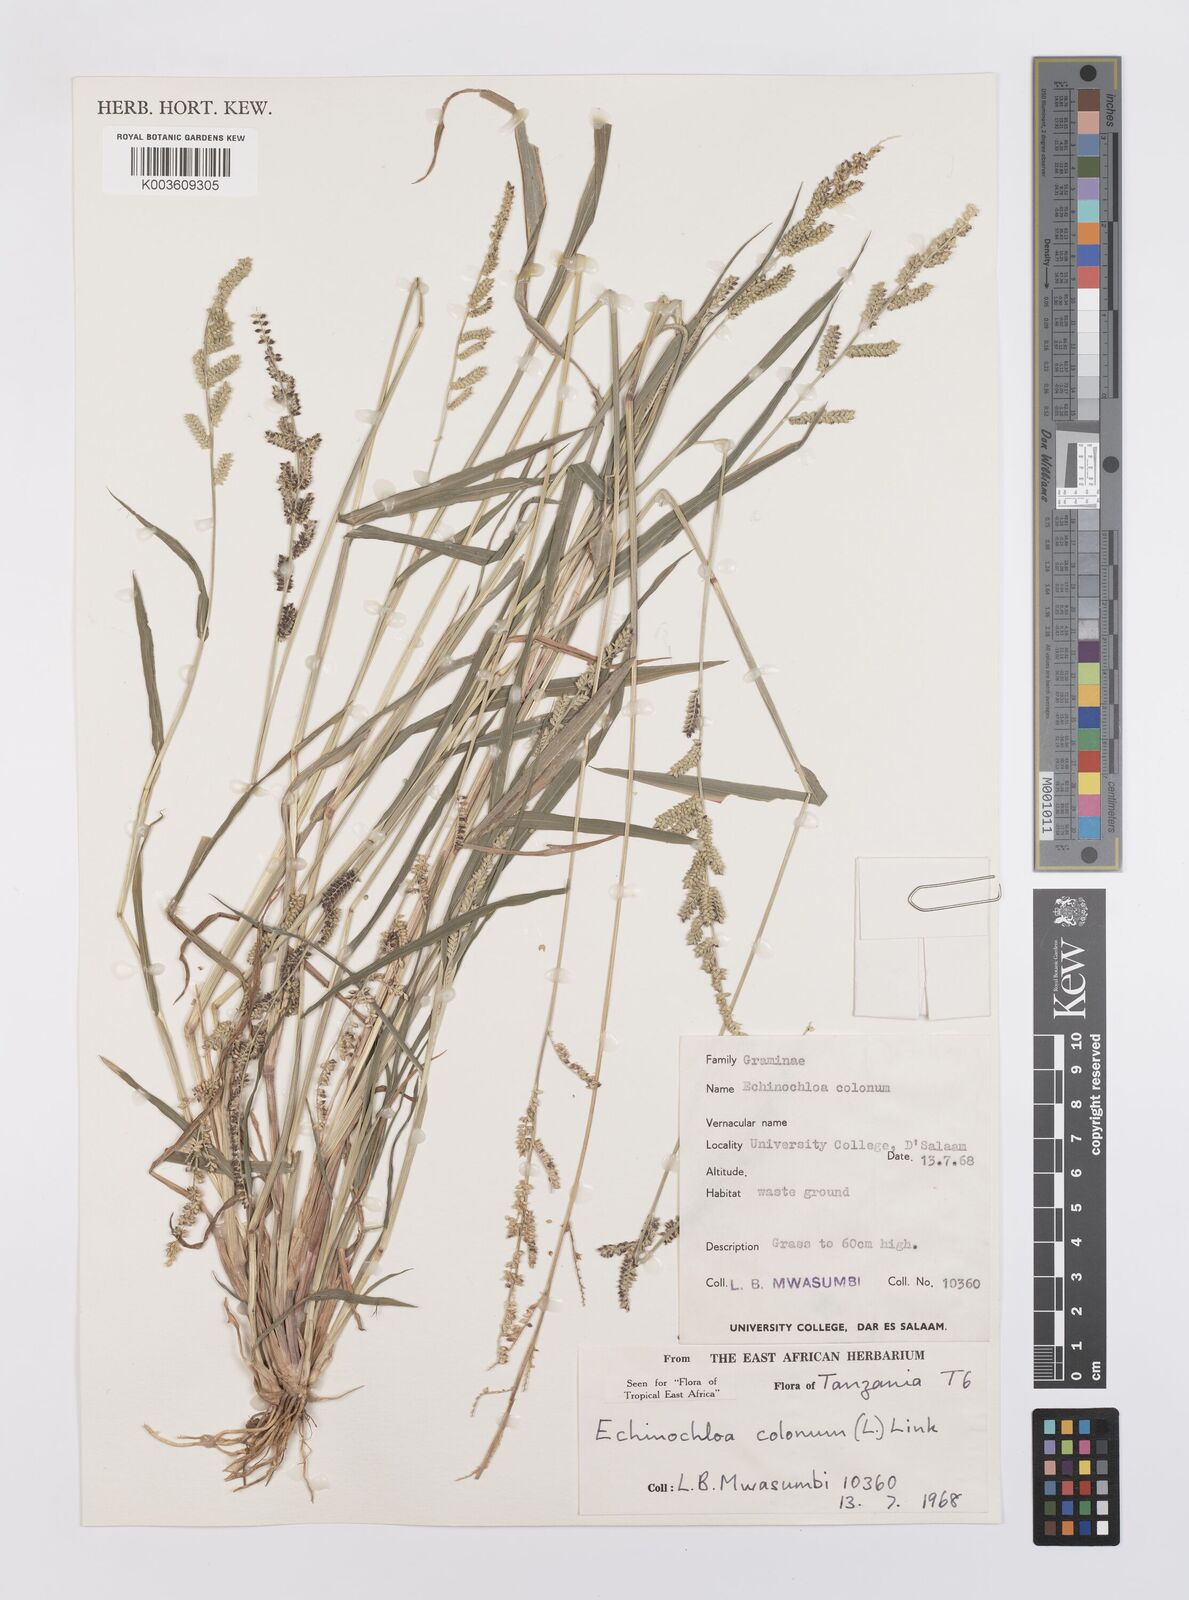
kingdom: Plantae
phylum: Tracheophyta
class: Liliopsida
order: Poales
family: Poaceae
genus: Echinochloa
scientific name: Echinochloa colonum
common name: Jungle rice
